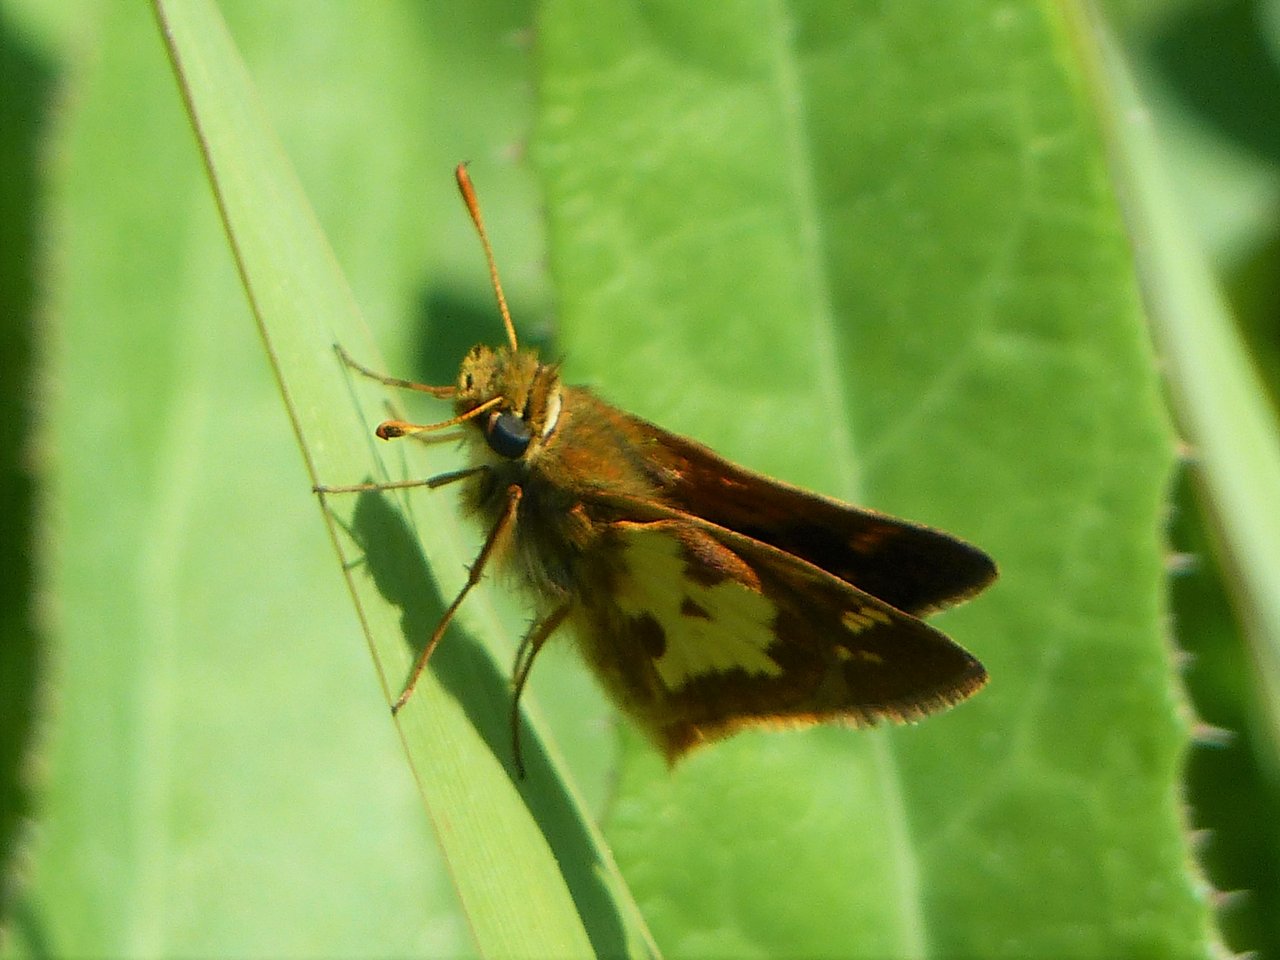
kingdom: Animalia
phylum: Arthropoda
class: Insecta
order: Lepidoptera
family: Hesperiidae
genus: Polites
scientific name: Polites coras
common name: Peck's Skipper
